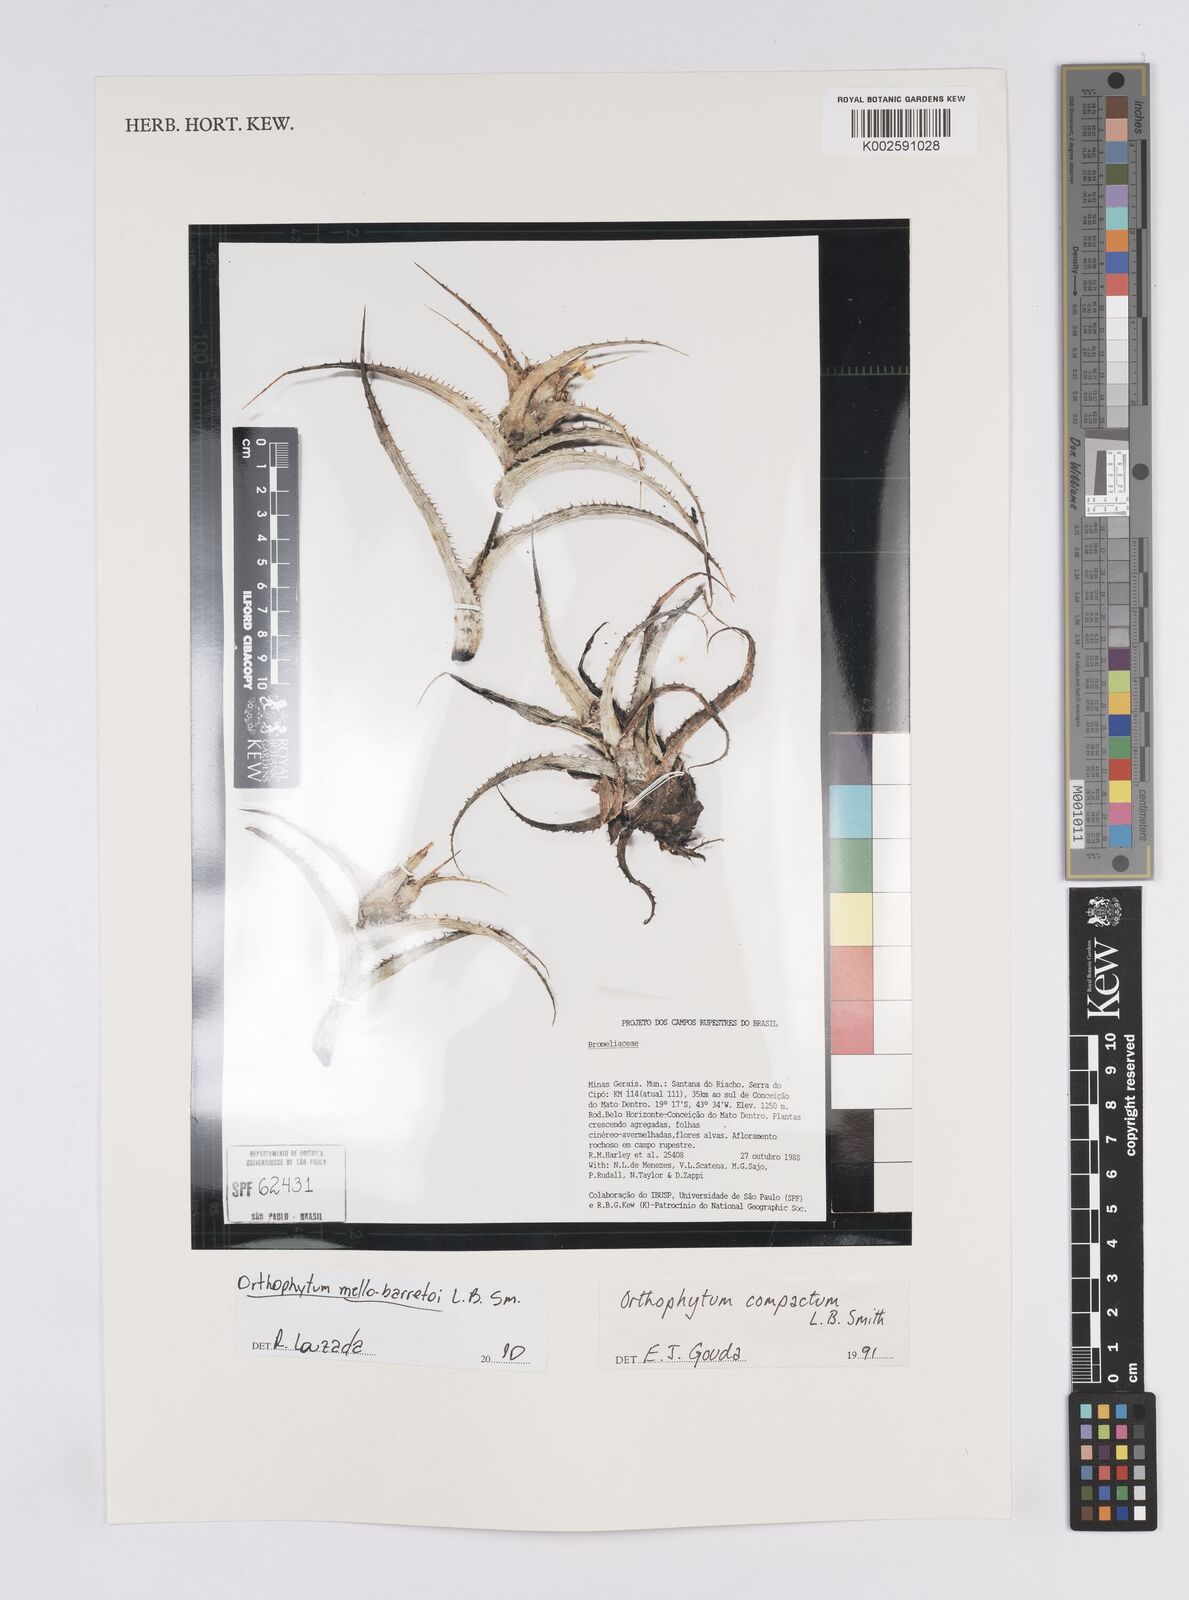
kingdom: Plantae
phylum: Tracheophyta
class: Liliopsida
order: Poales
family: Bromeliaceae
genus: Orthophytum
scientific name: Orthophytum mello-barretoi
